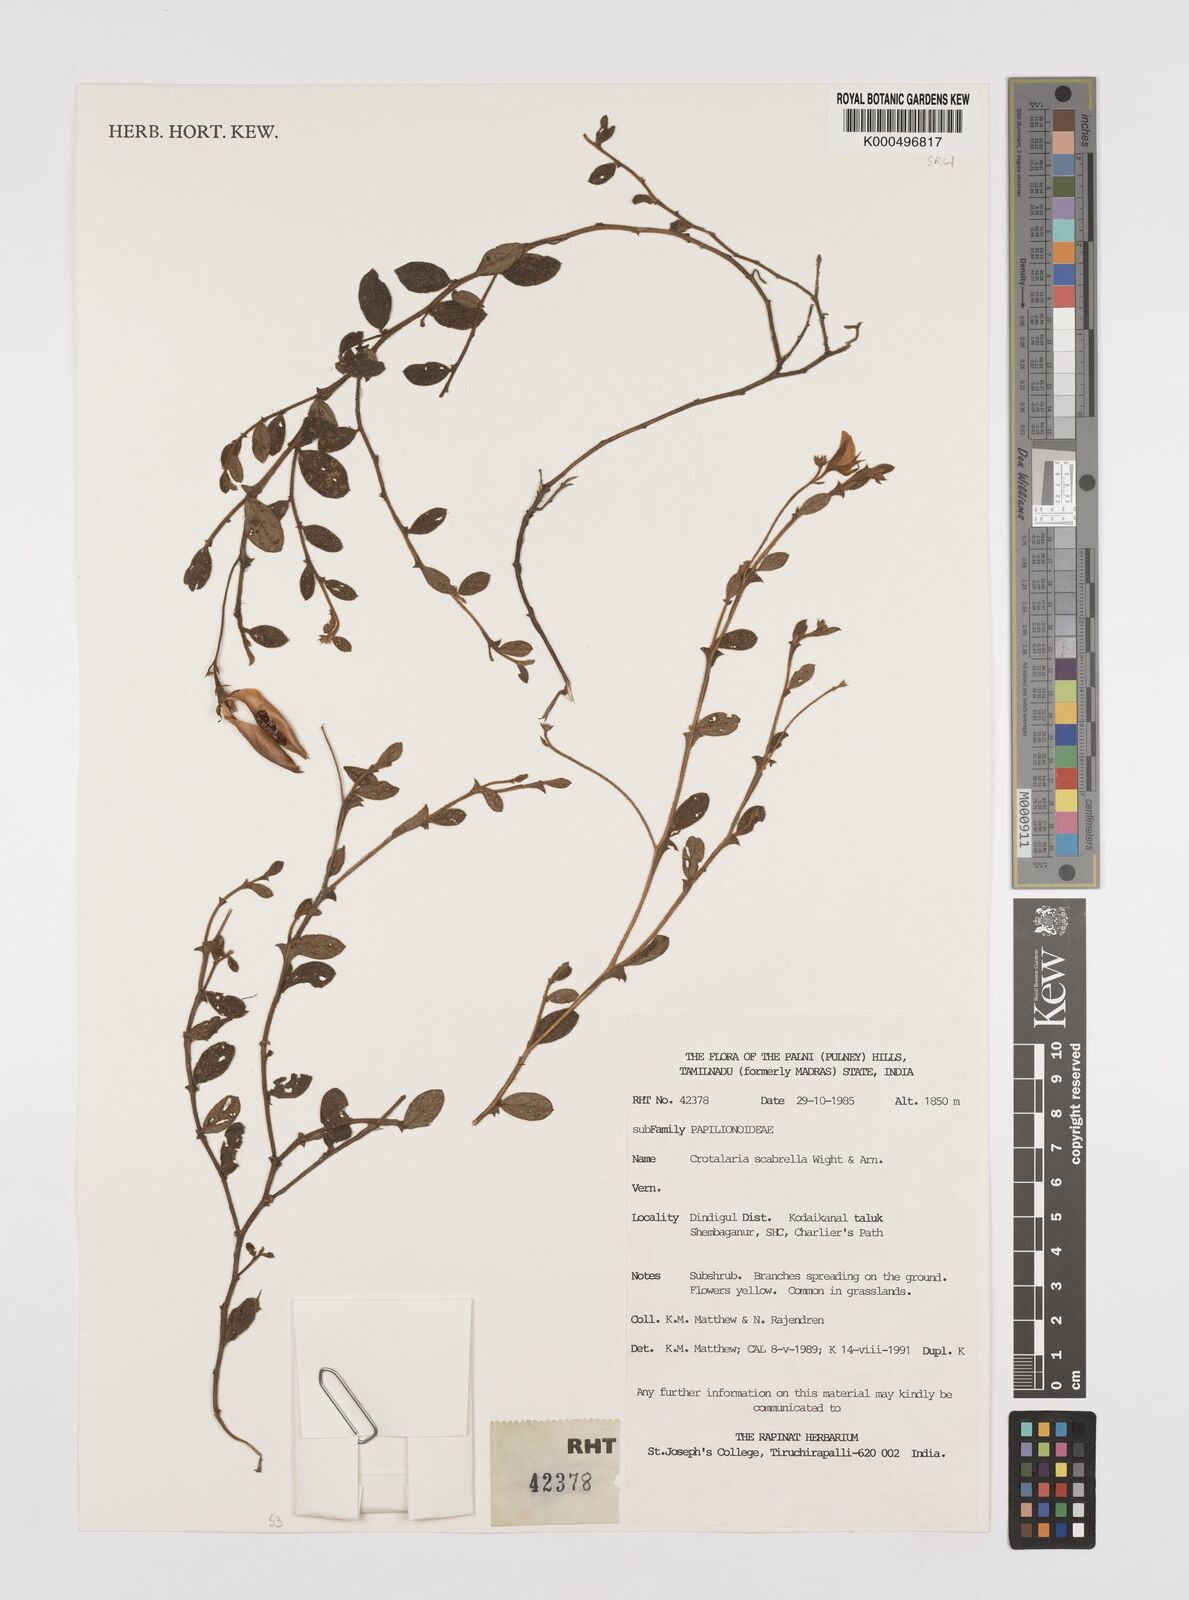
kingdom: Plantae
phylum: Tracheophyta
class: Magnoliopsida
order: Fabales
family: Fabaceae
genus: Crotalaria
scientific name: Crotalaria scabrella
